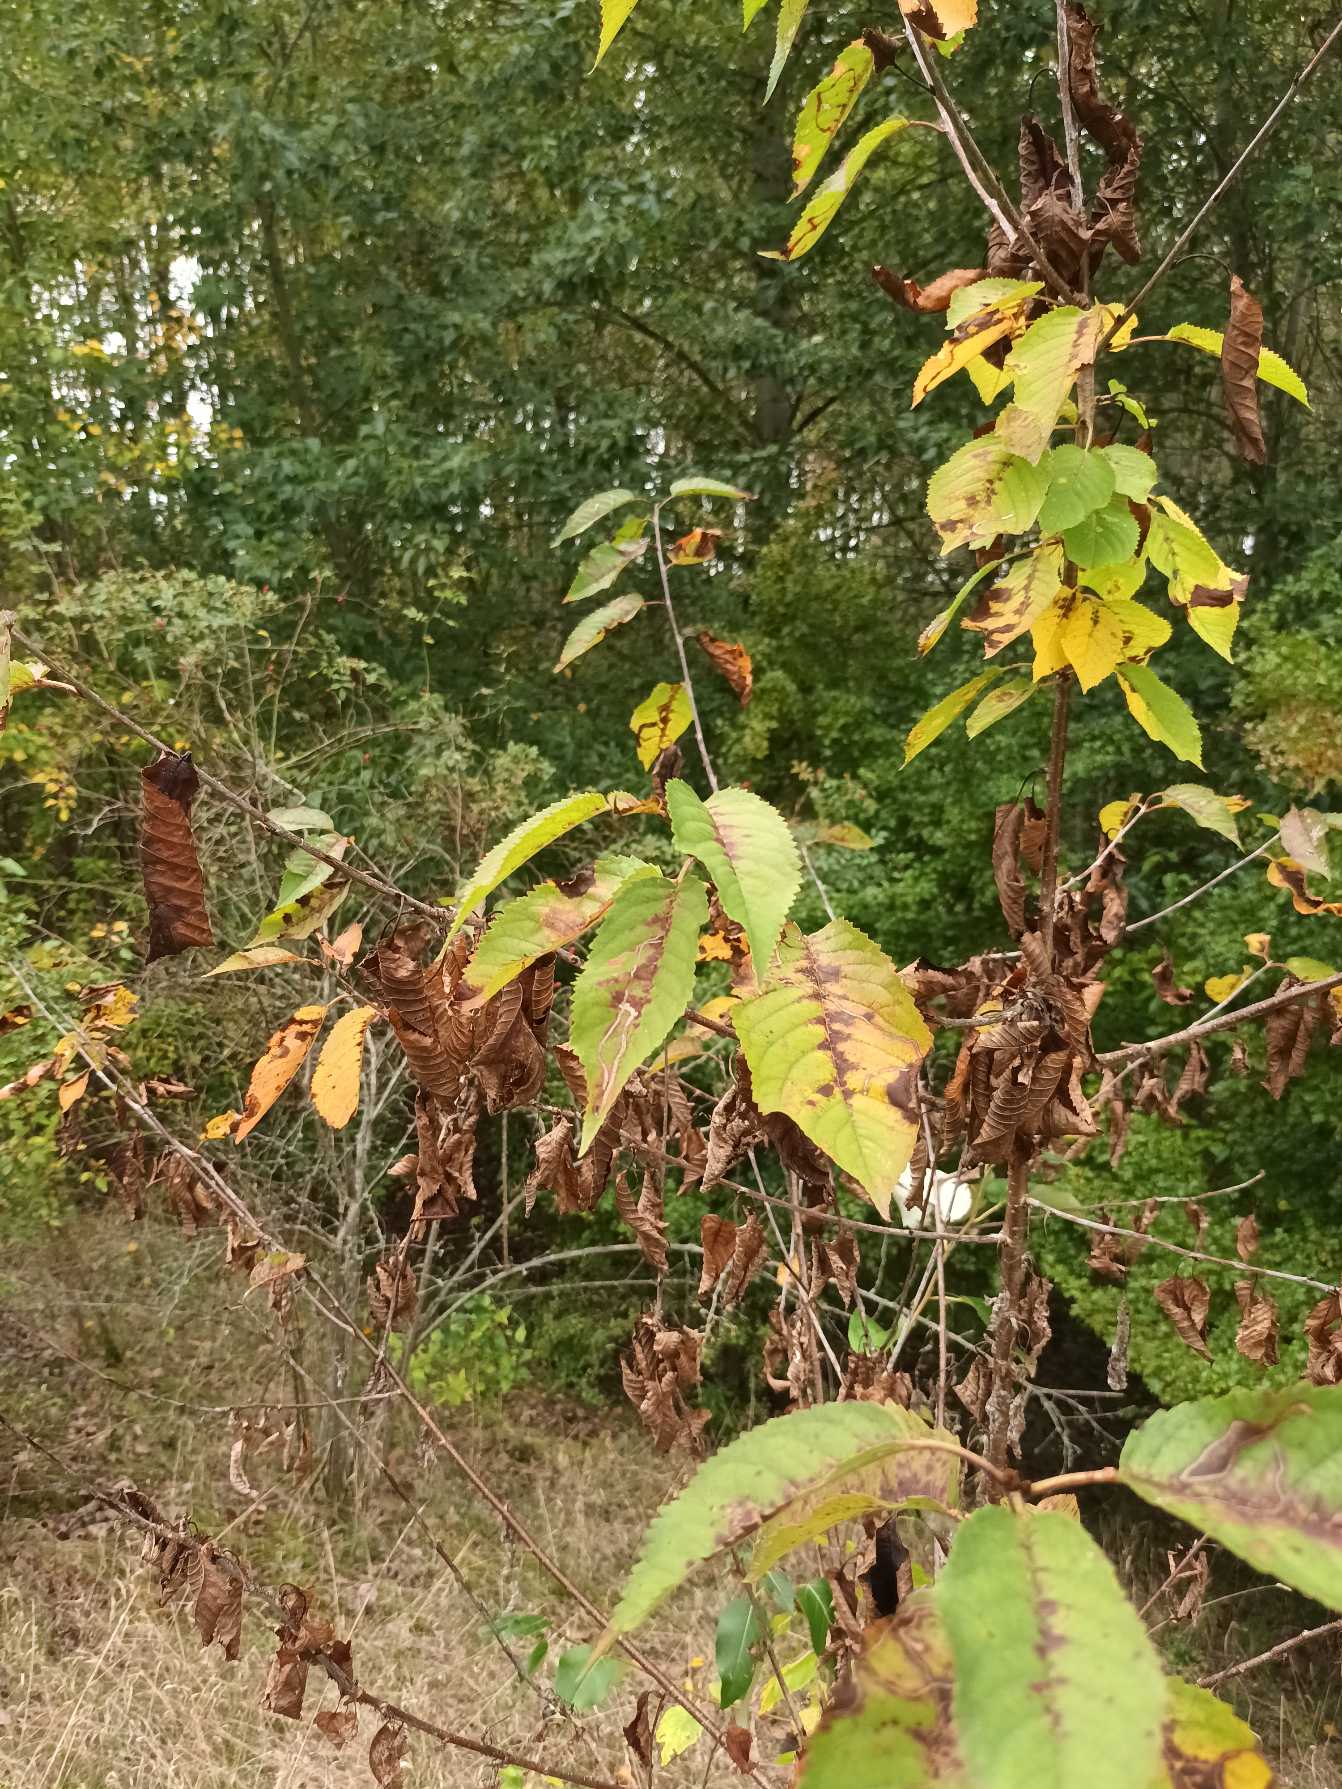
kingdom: Plantae
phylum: Tracheophyta
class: Magnoliopsida
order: Rosales
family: Rosaceae
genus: Prunus
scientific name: Prunus avium
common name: Fugle-kirsebær
